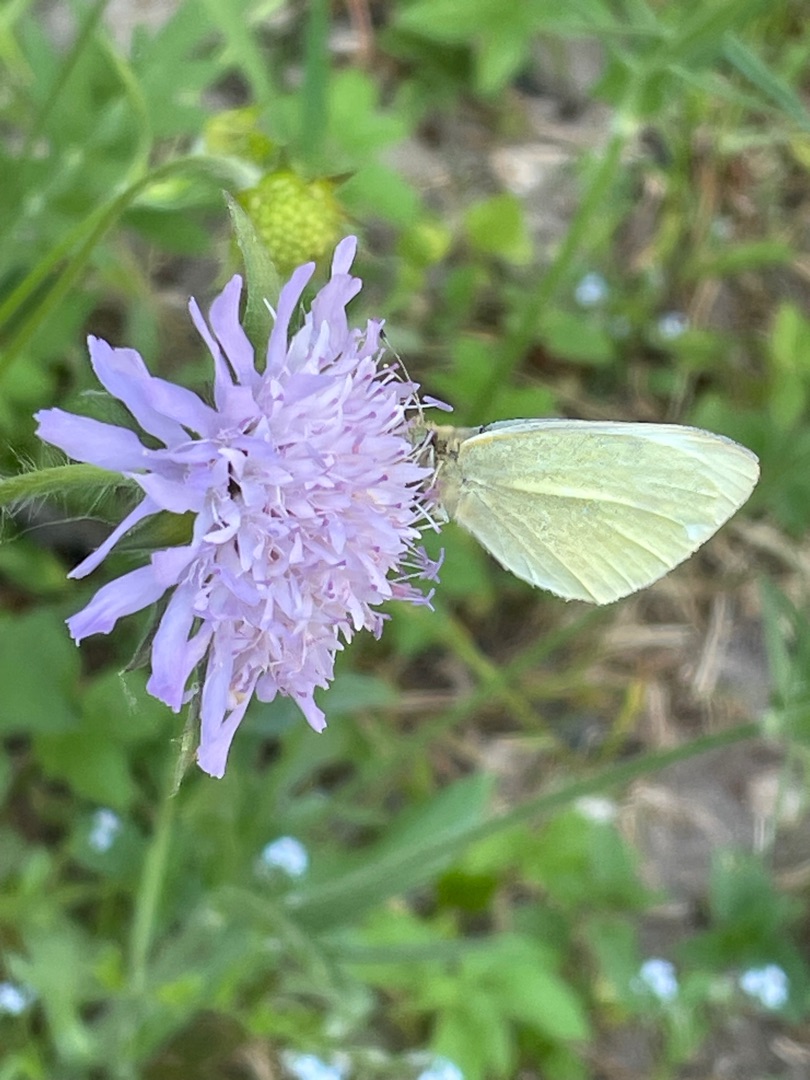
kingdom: Animalia
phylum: Arthropoda
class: Insecta
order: Lepidoptera
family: Pieridae
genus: Pieris
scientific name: Pieris rapae
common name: Lille kålsommerfugl
